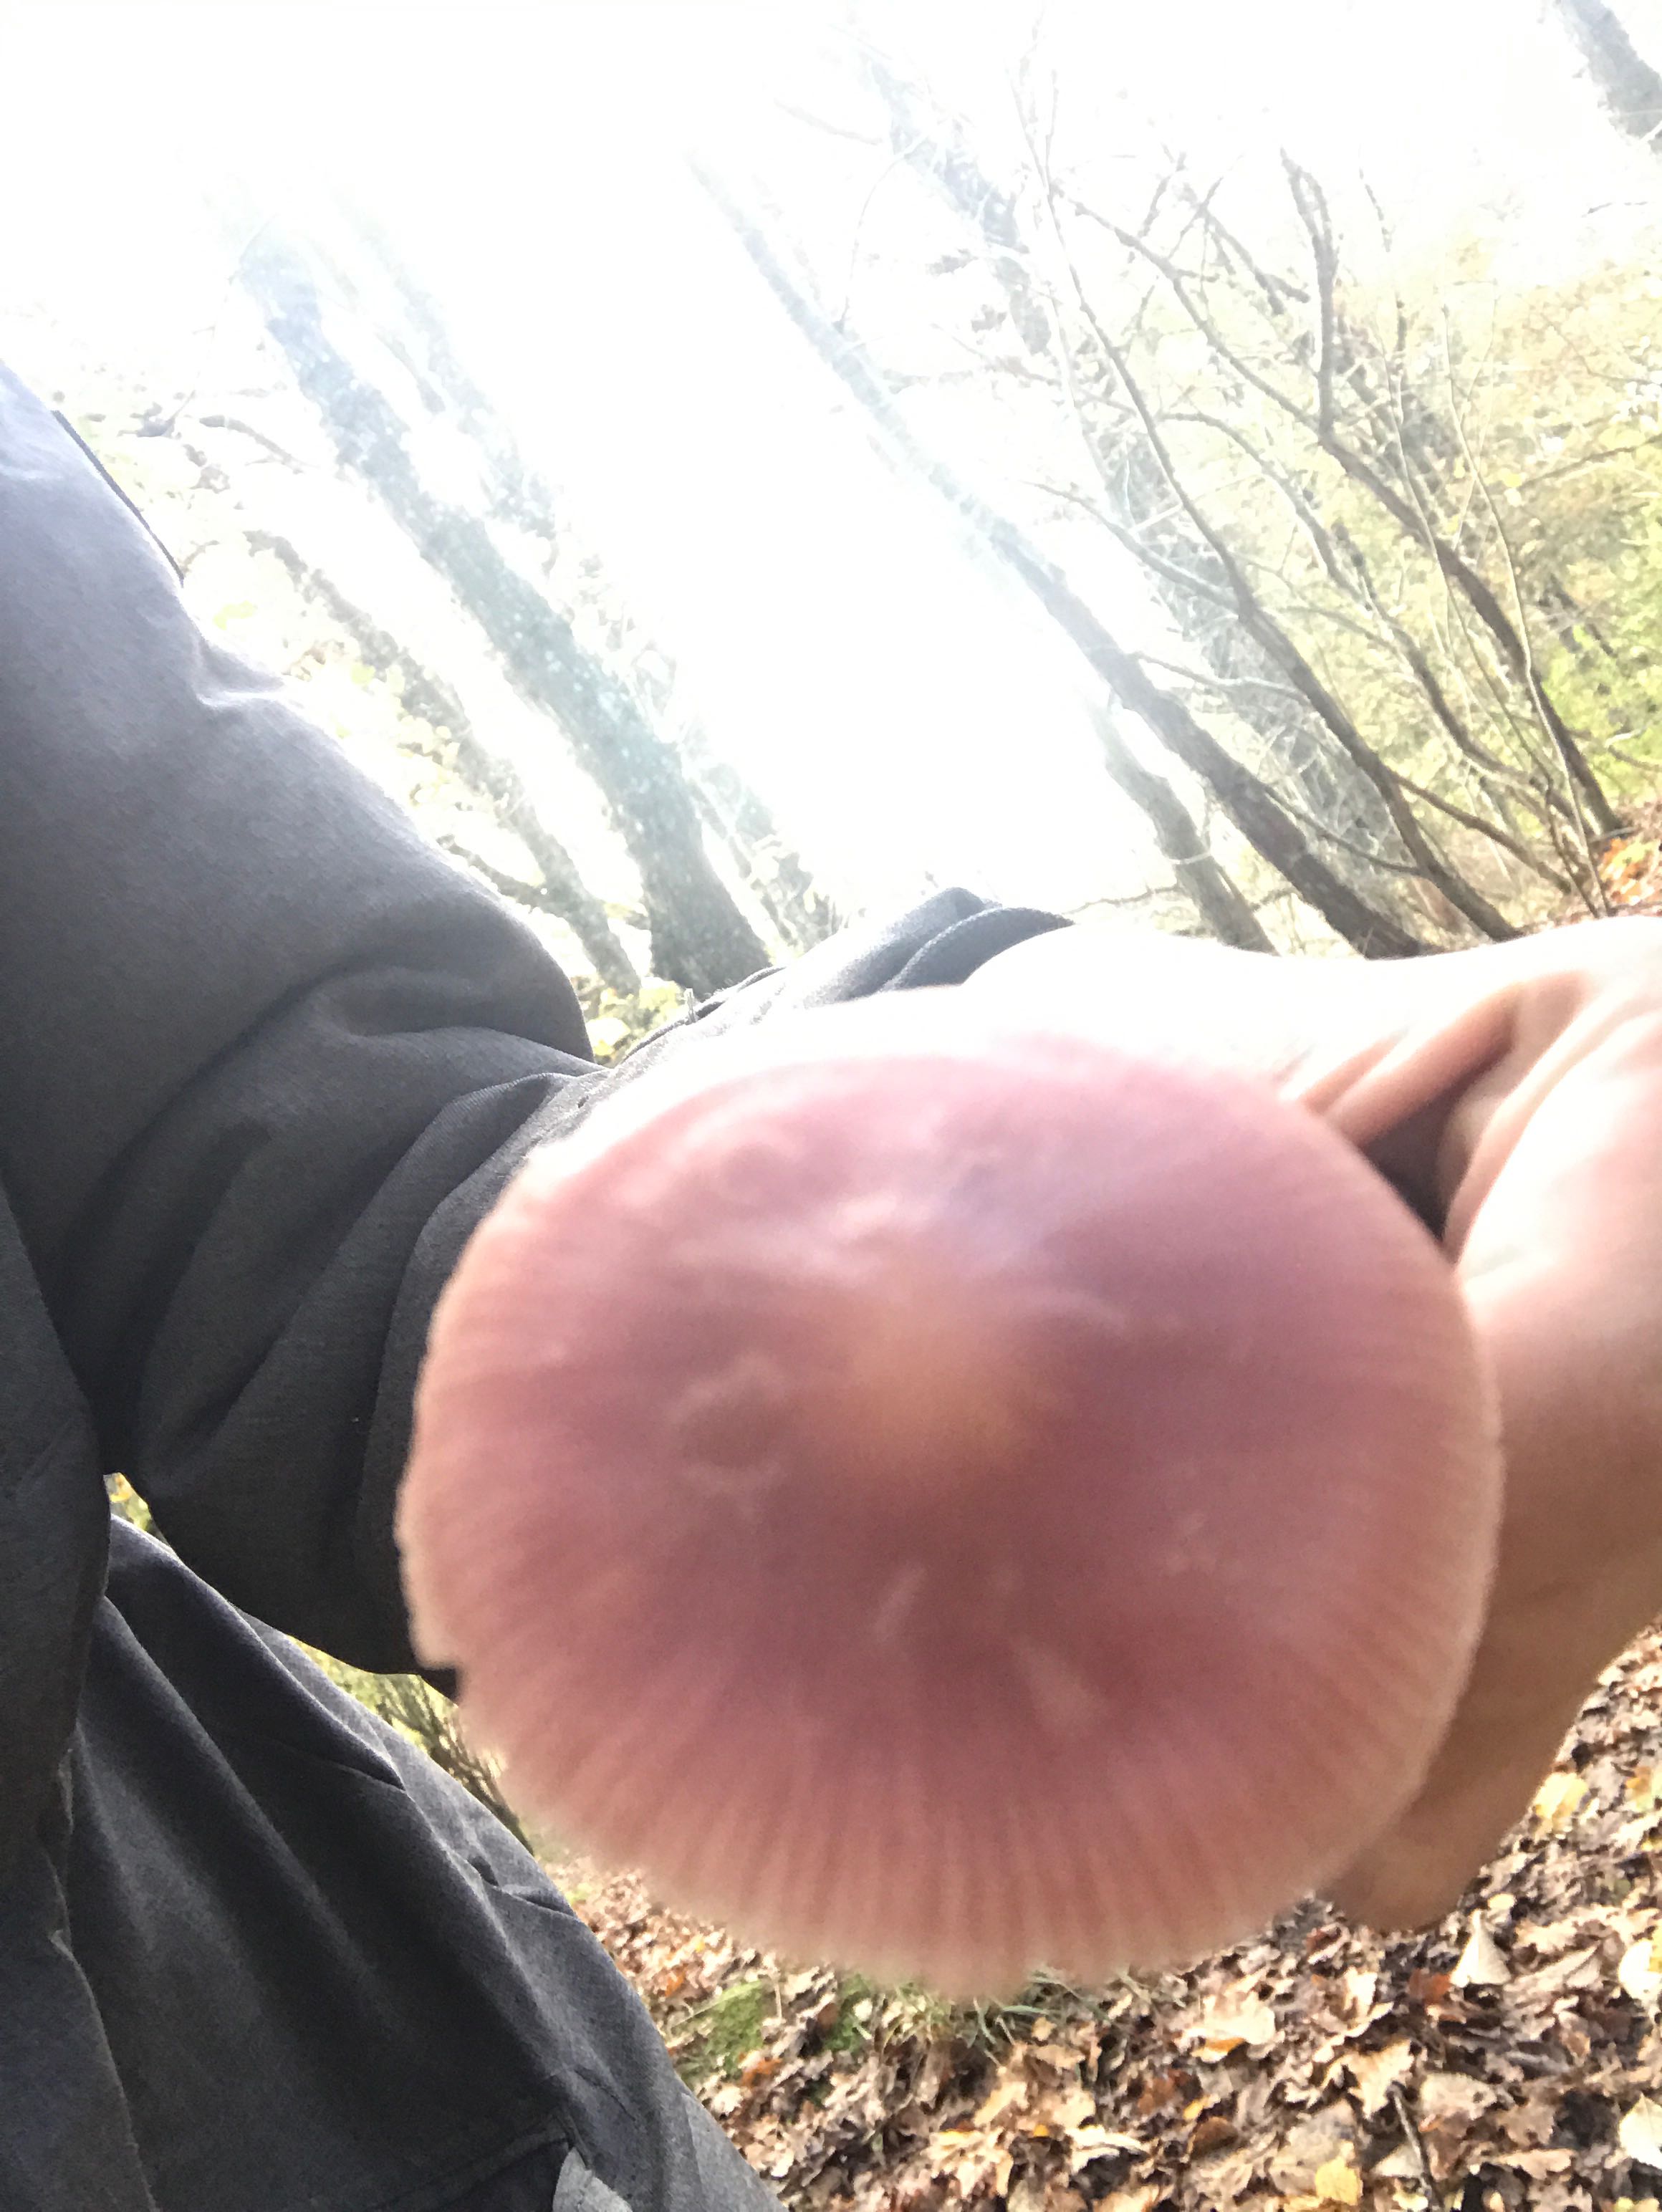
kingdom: Fungi
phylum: Basidiomycota
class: Agaricomycetes
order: Agaricales
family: Mycenaceae
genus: Mycena
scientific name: Mycena rosea
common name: rosa huesvamp
